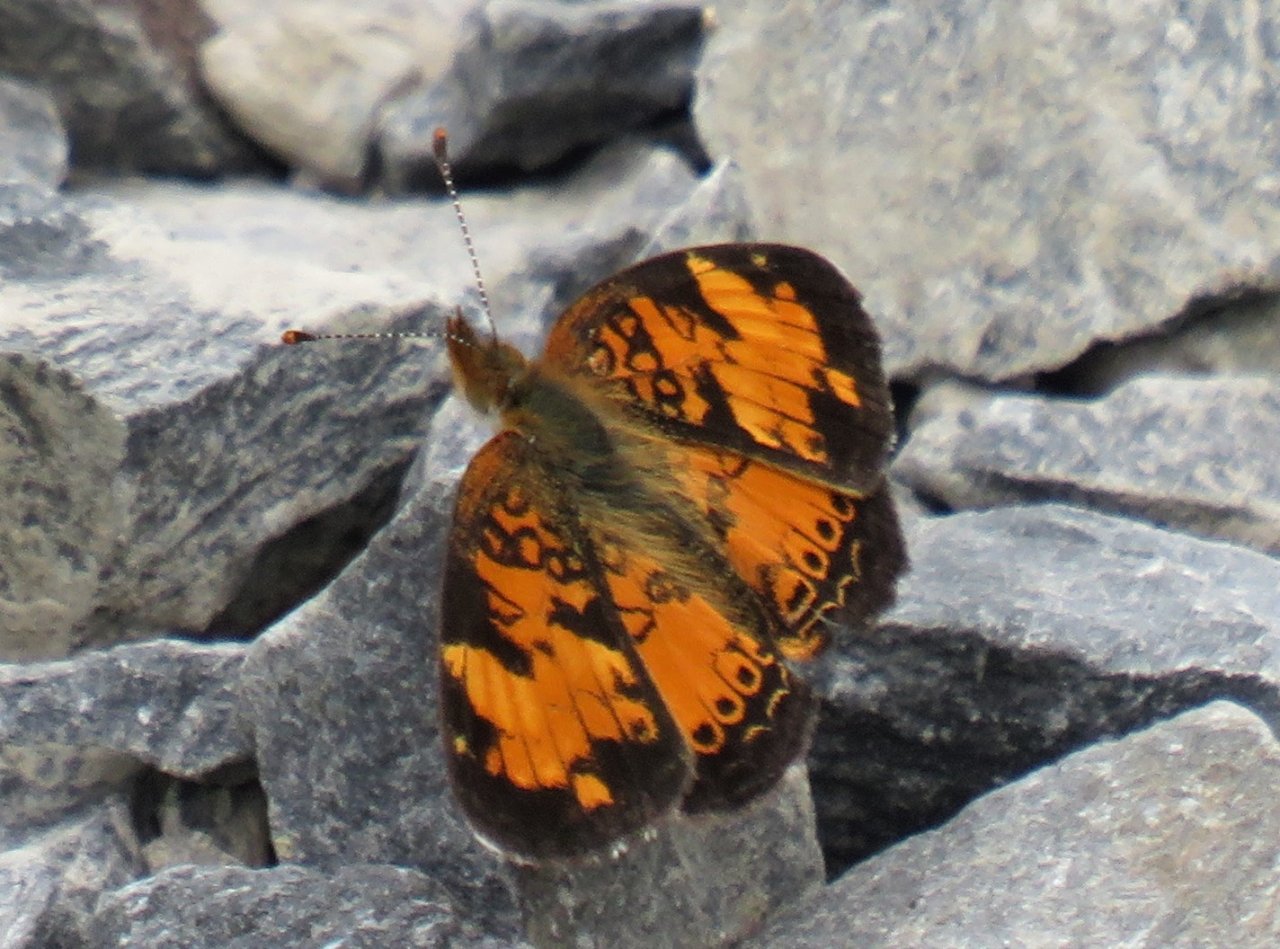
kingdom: Animalia
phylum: Arthropoda
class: Insecta
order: Lepidoptera
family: Nymphalidae
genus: Phyciodes
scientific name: Phyciodes tharos
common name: Northern Crescent
